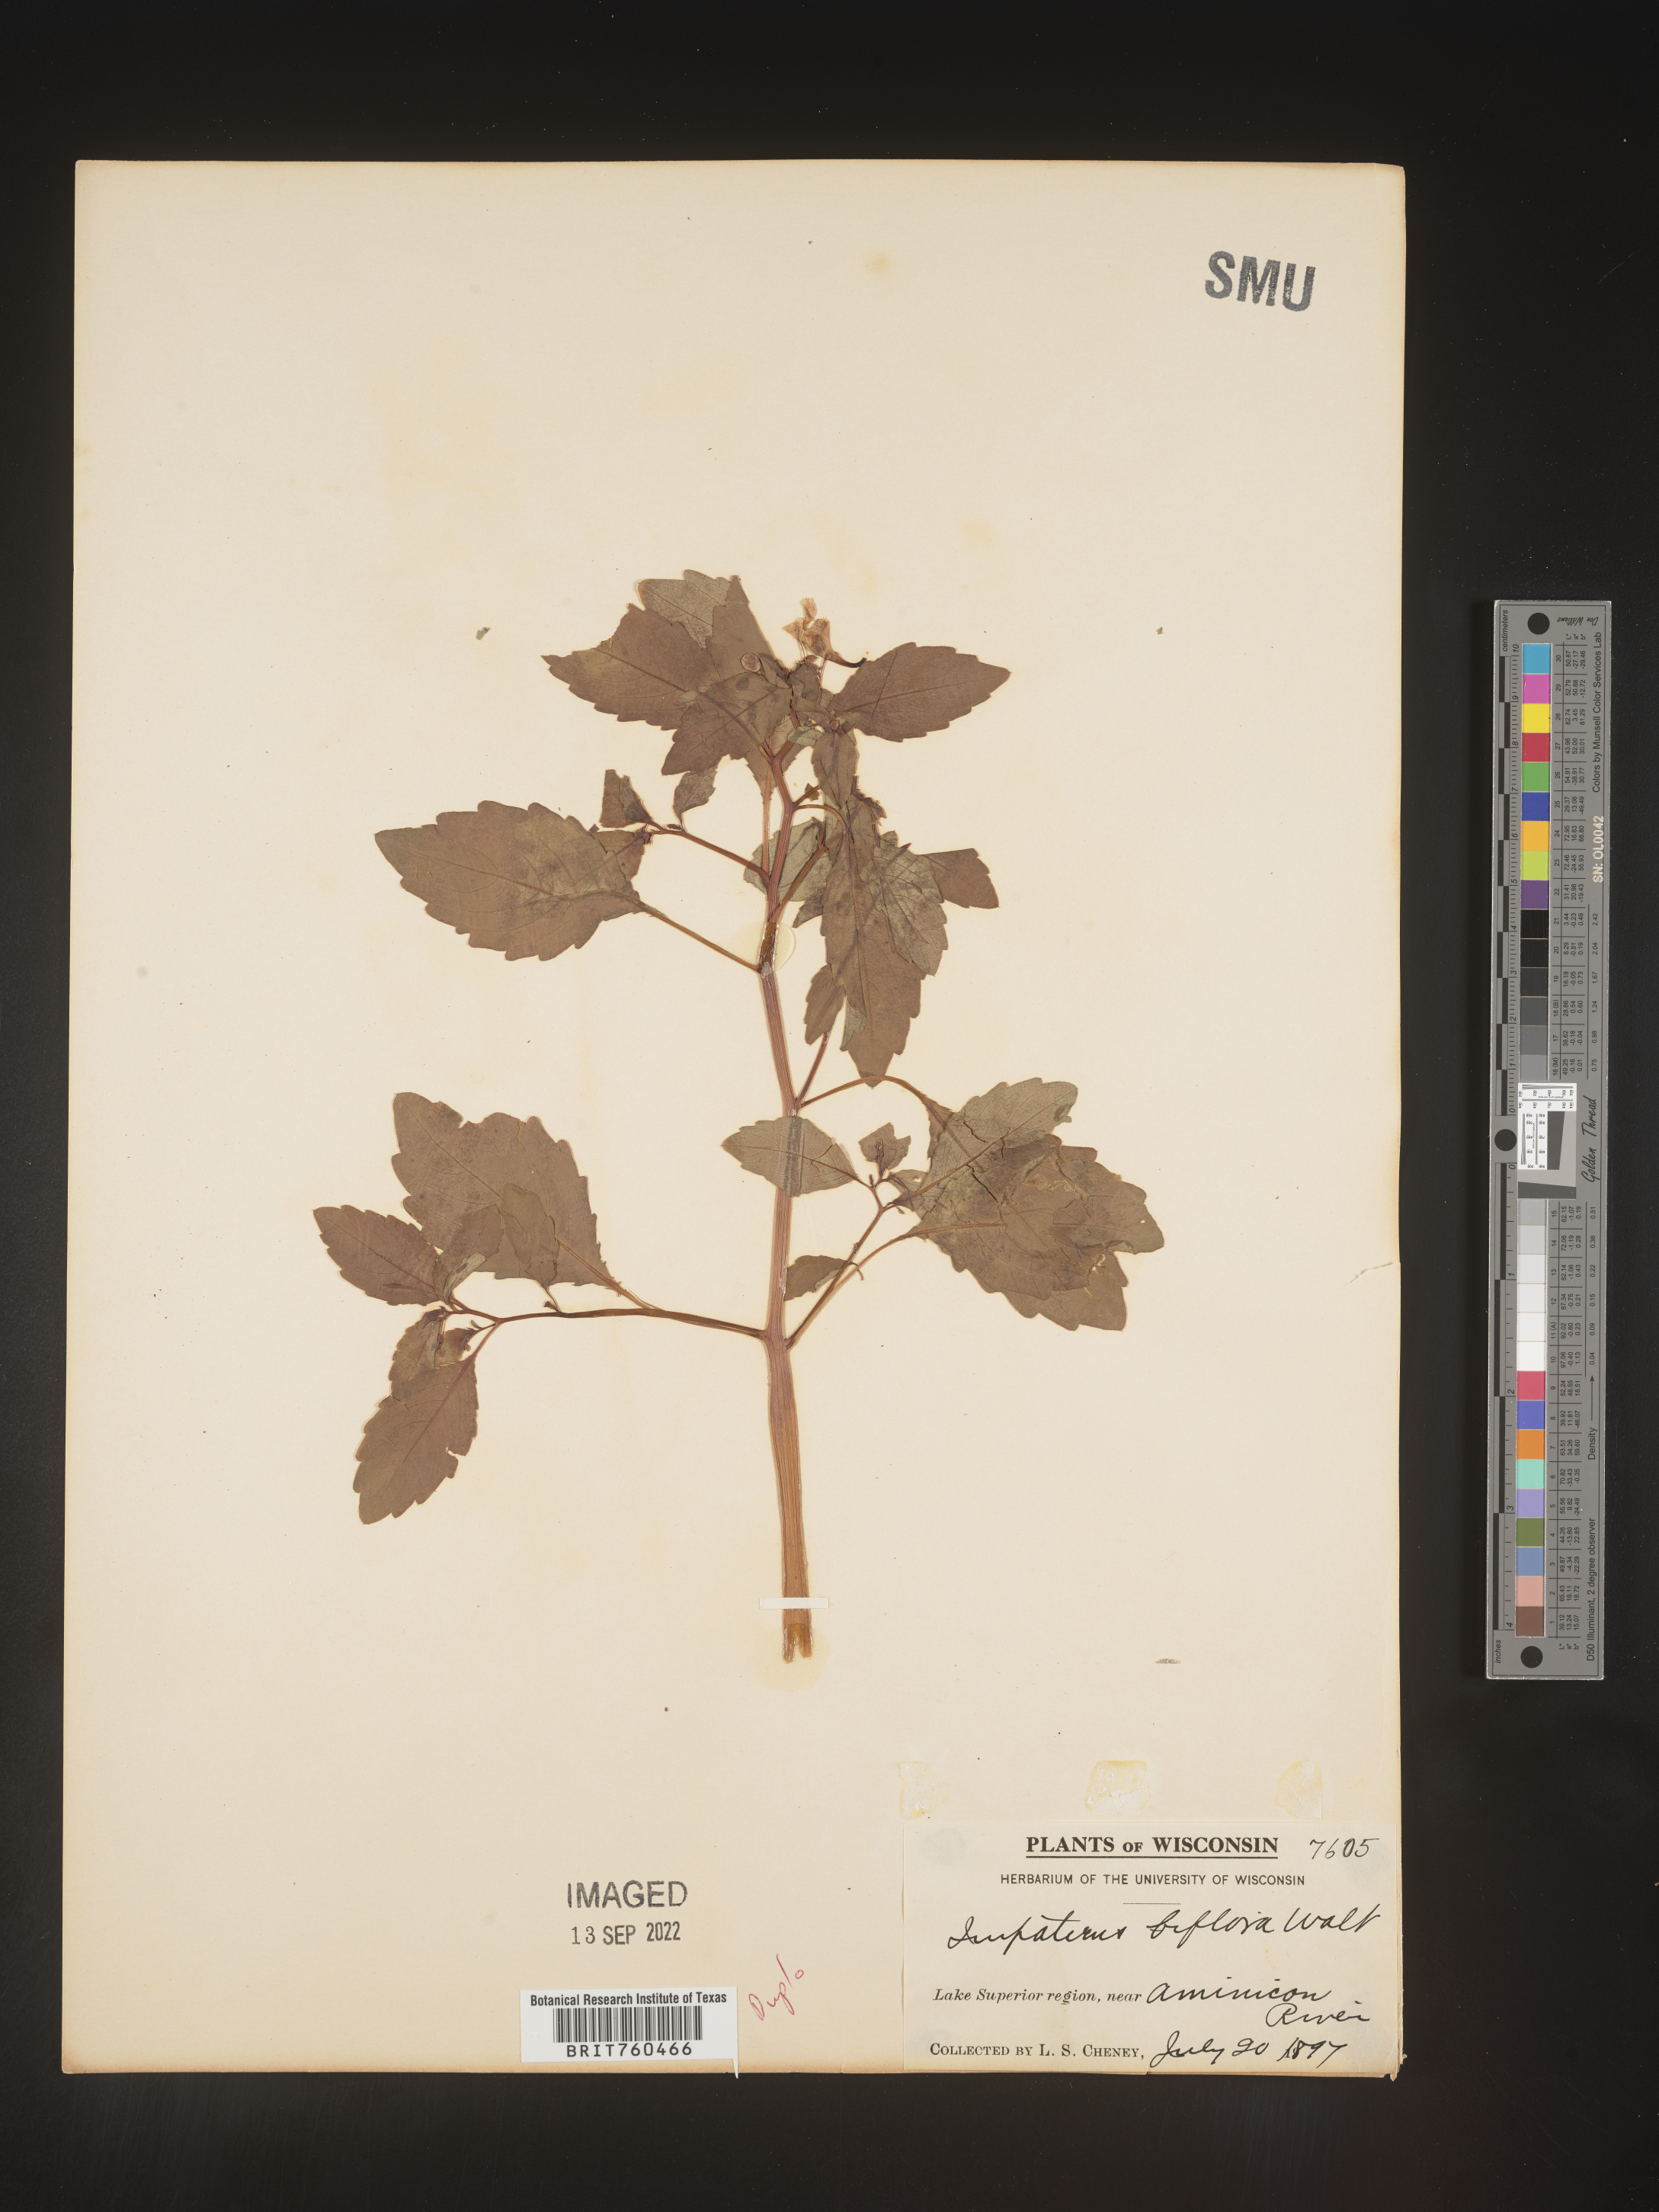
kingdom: Plantae
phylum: Tracheophyta
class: Magnoliopsida
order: Ericales
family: Balsaminaceae
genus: Impatiens
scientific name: Impatiens capensis
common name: Orange balsam
